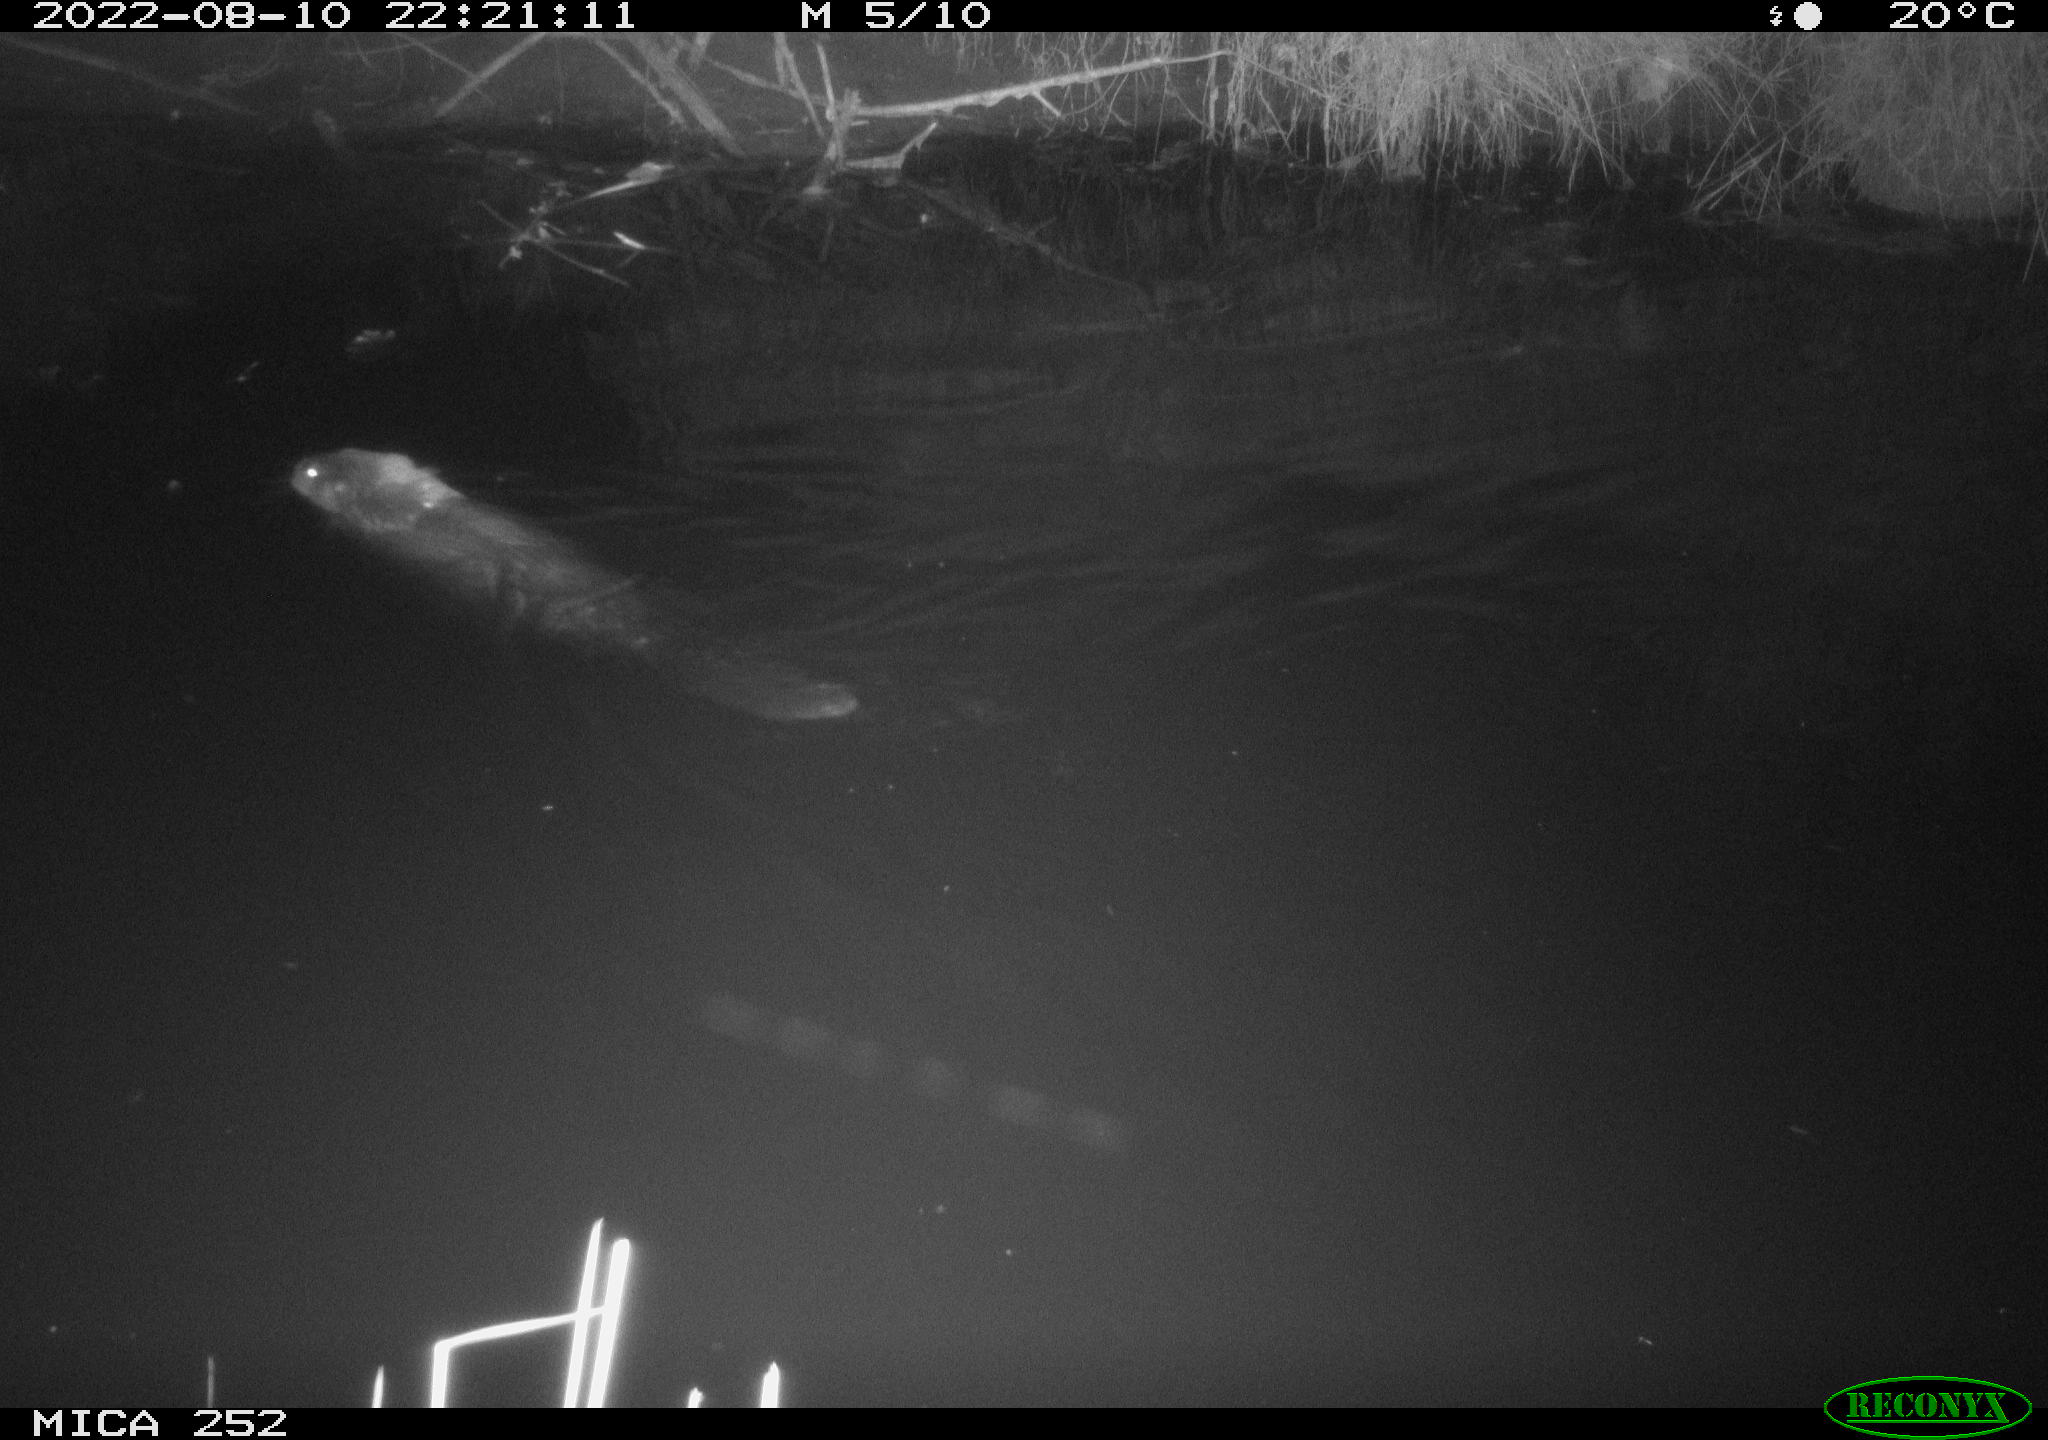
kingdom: Animalia
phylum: Chordata
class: Mammalia
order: Rodentia
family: Castoridae
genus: Castor
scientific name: Castor fiber
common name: Eurasian beaver
